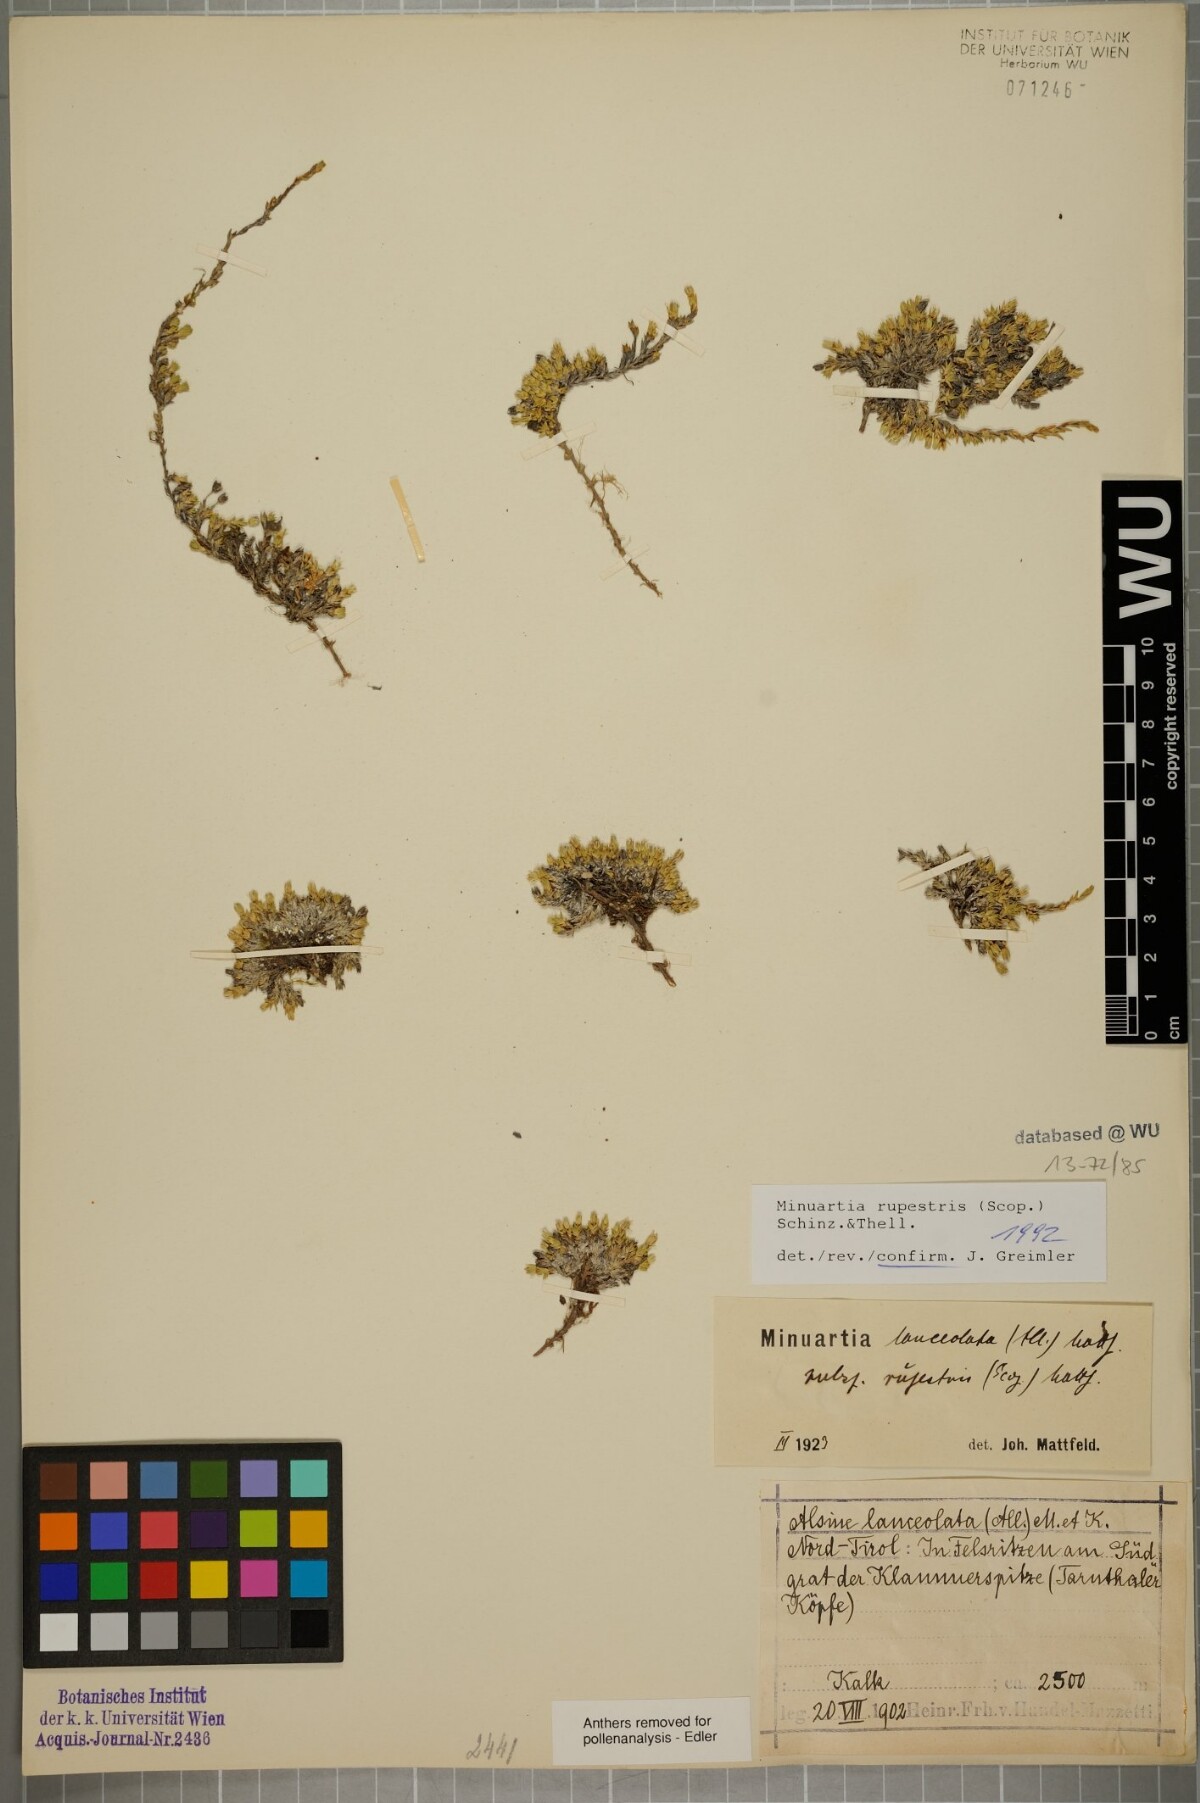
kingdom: Plantae
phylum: Tracheophyta
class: Magnoliopsida
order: Caryophyllales
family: Caryophyllaceae
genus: Facchinia
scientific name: Facchinia rupestris
